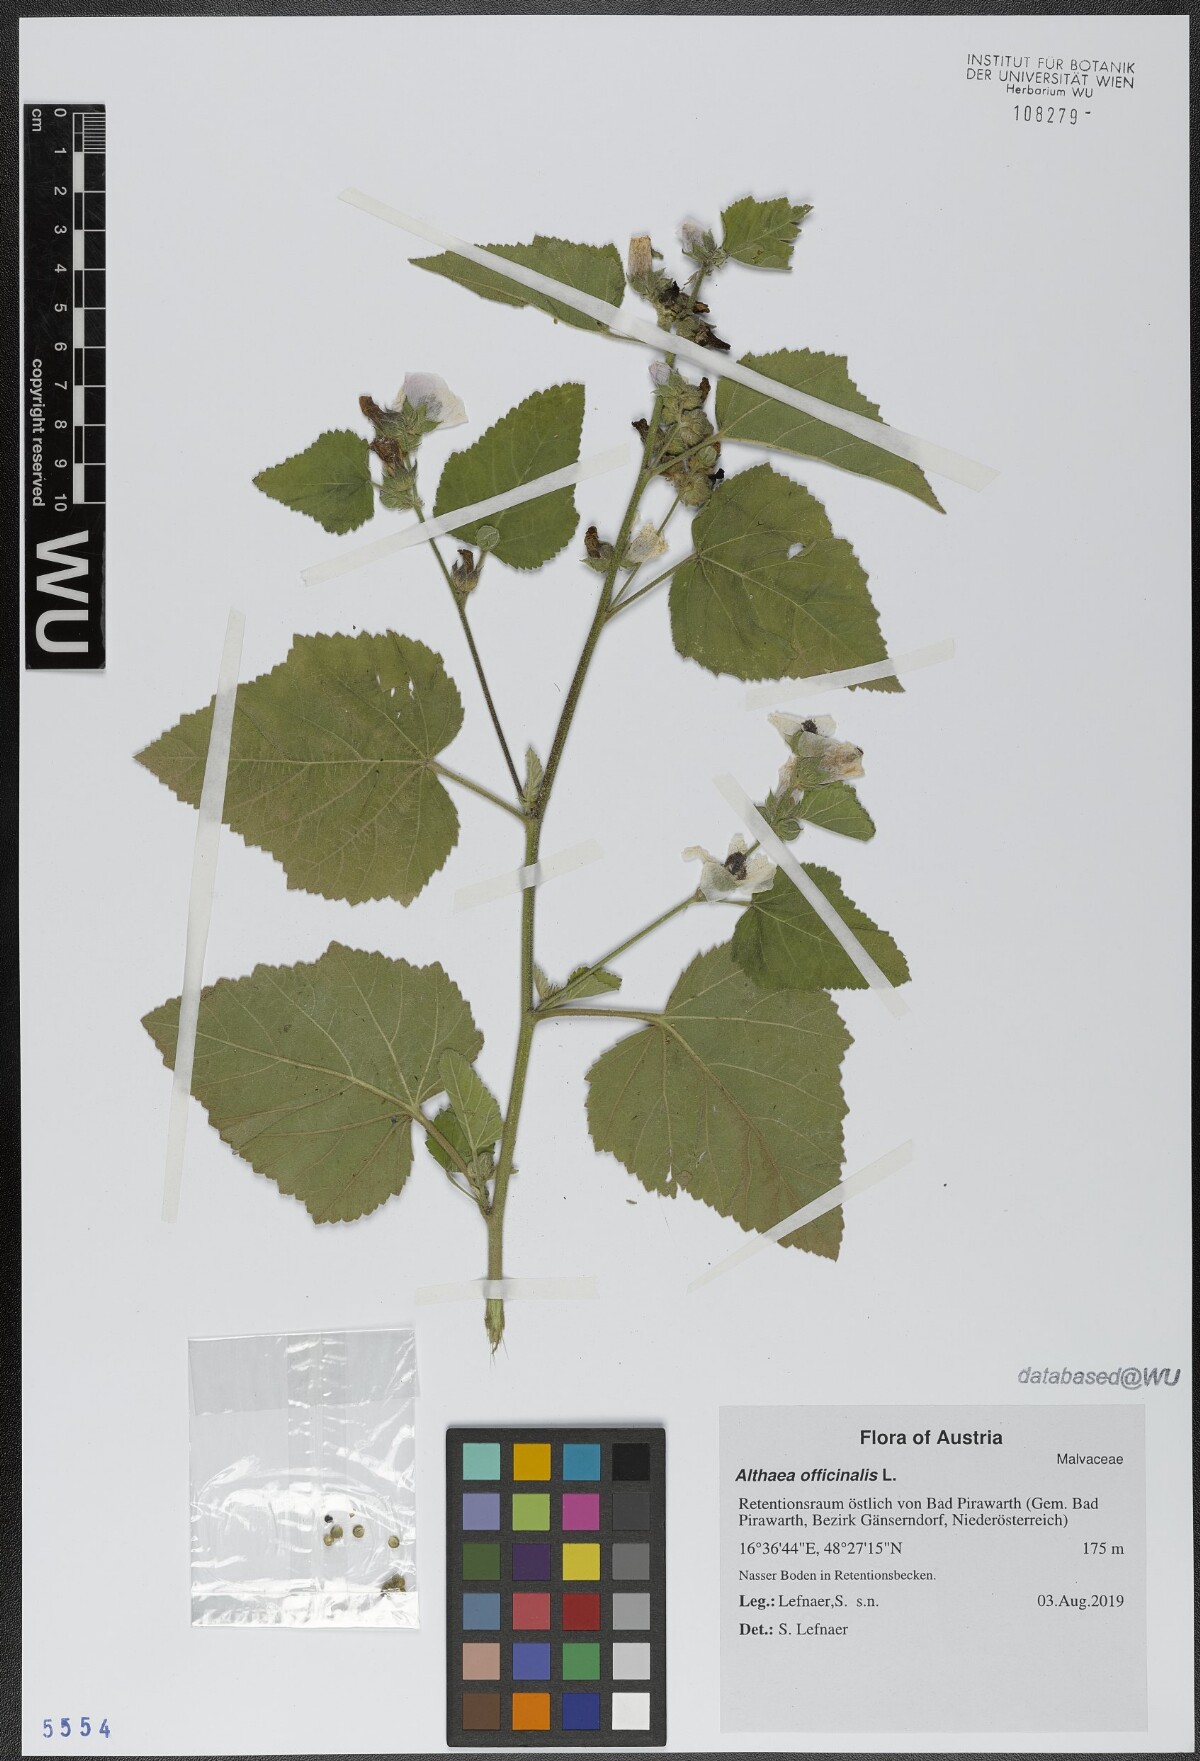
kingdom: Plantae
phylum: Tracheophyta
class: Magnoliopsida
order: Malvales
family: Malvaceae
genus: Althaea
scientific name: Althaea officinalis
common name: Marsh-mallow
